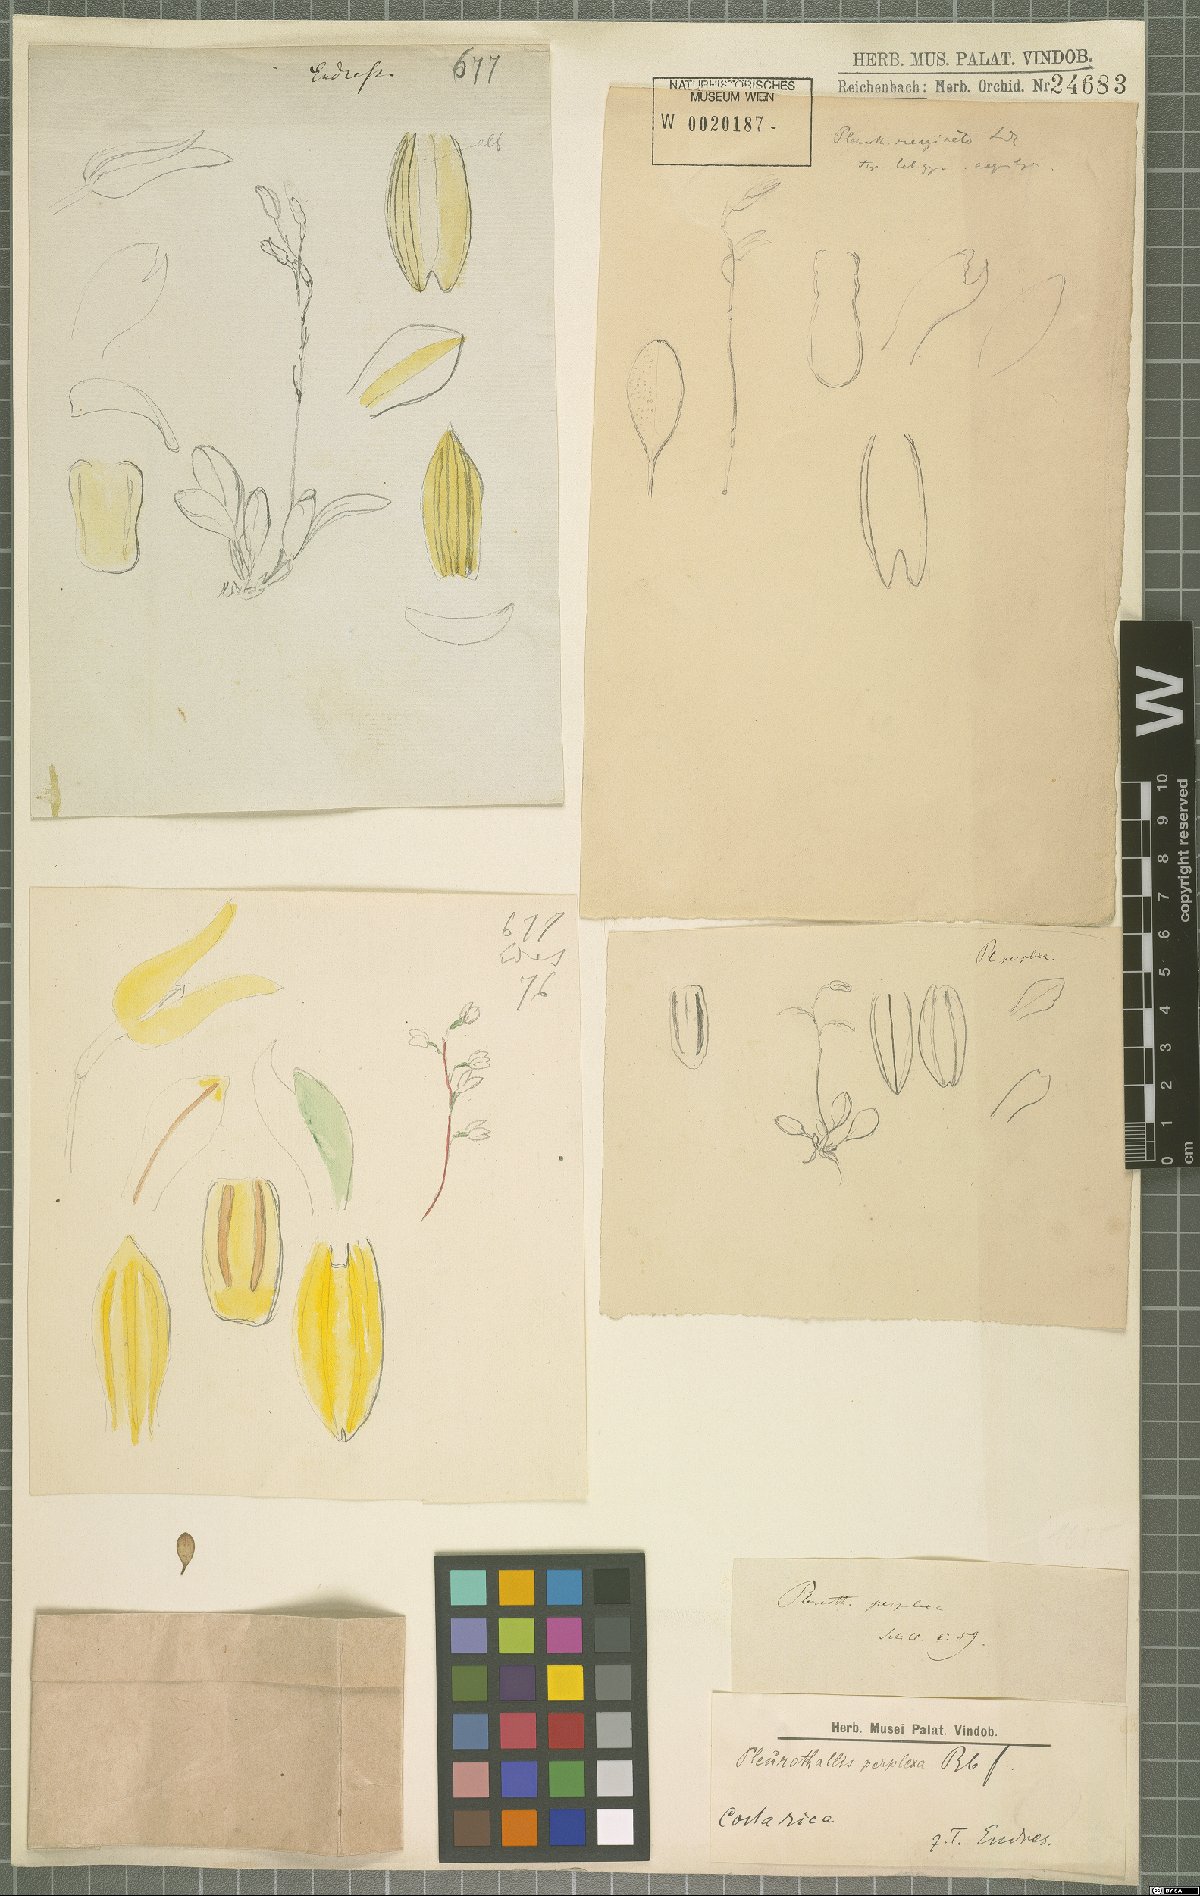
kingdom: Plantae
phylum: Tracheophyta
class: Liliopsida
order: Asparagales
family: Orchidaceae
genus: Specklinia
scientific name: Specklinia grobyi
